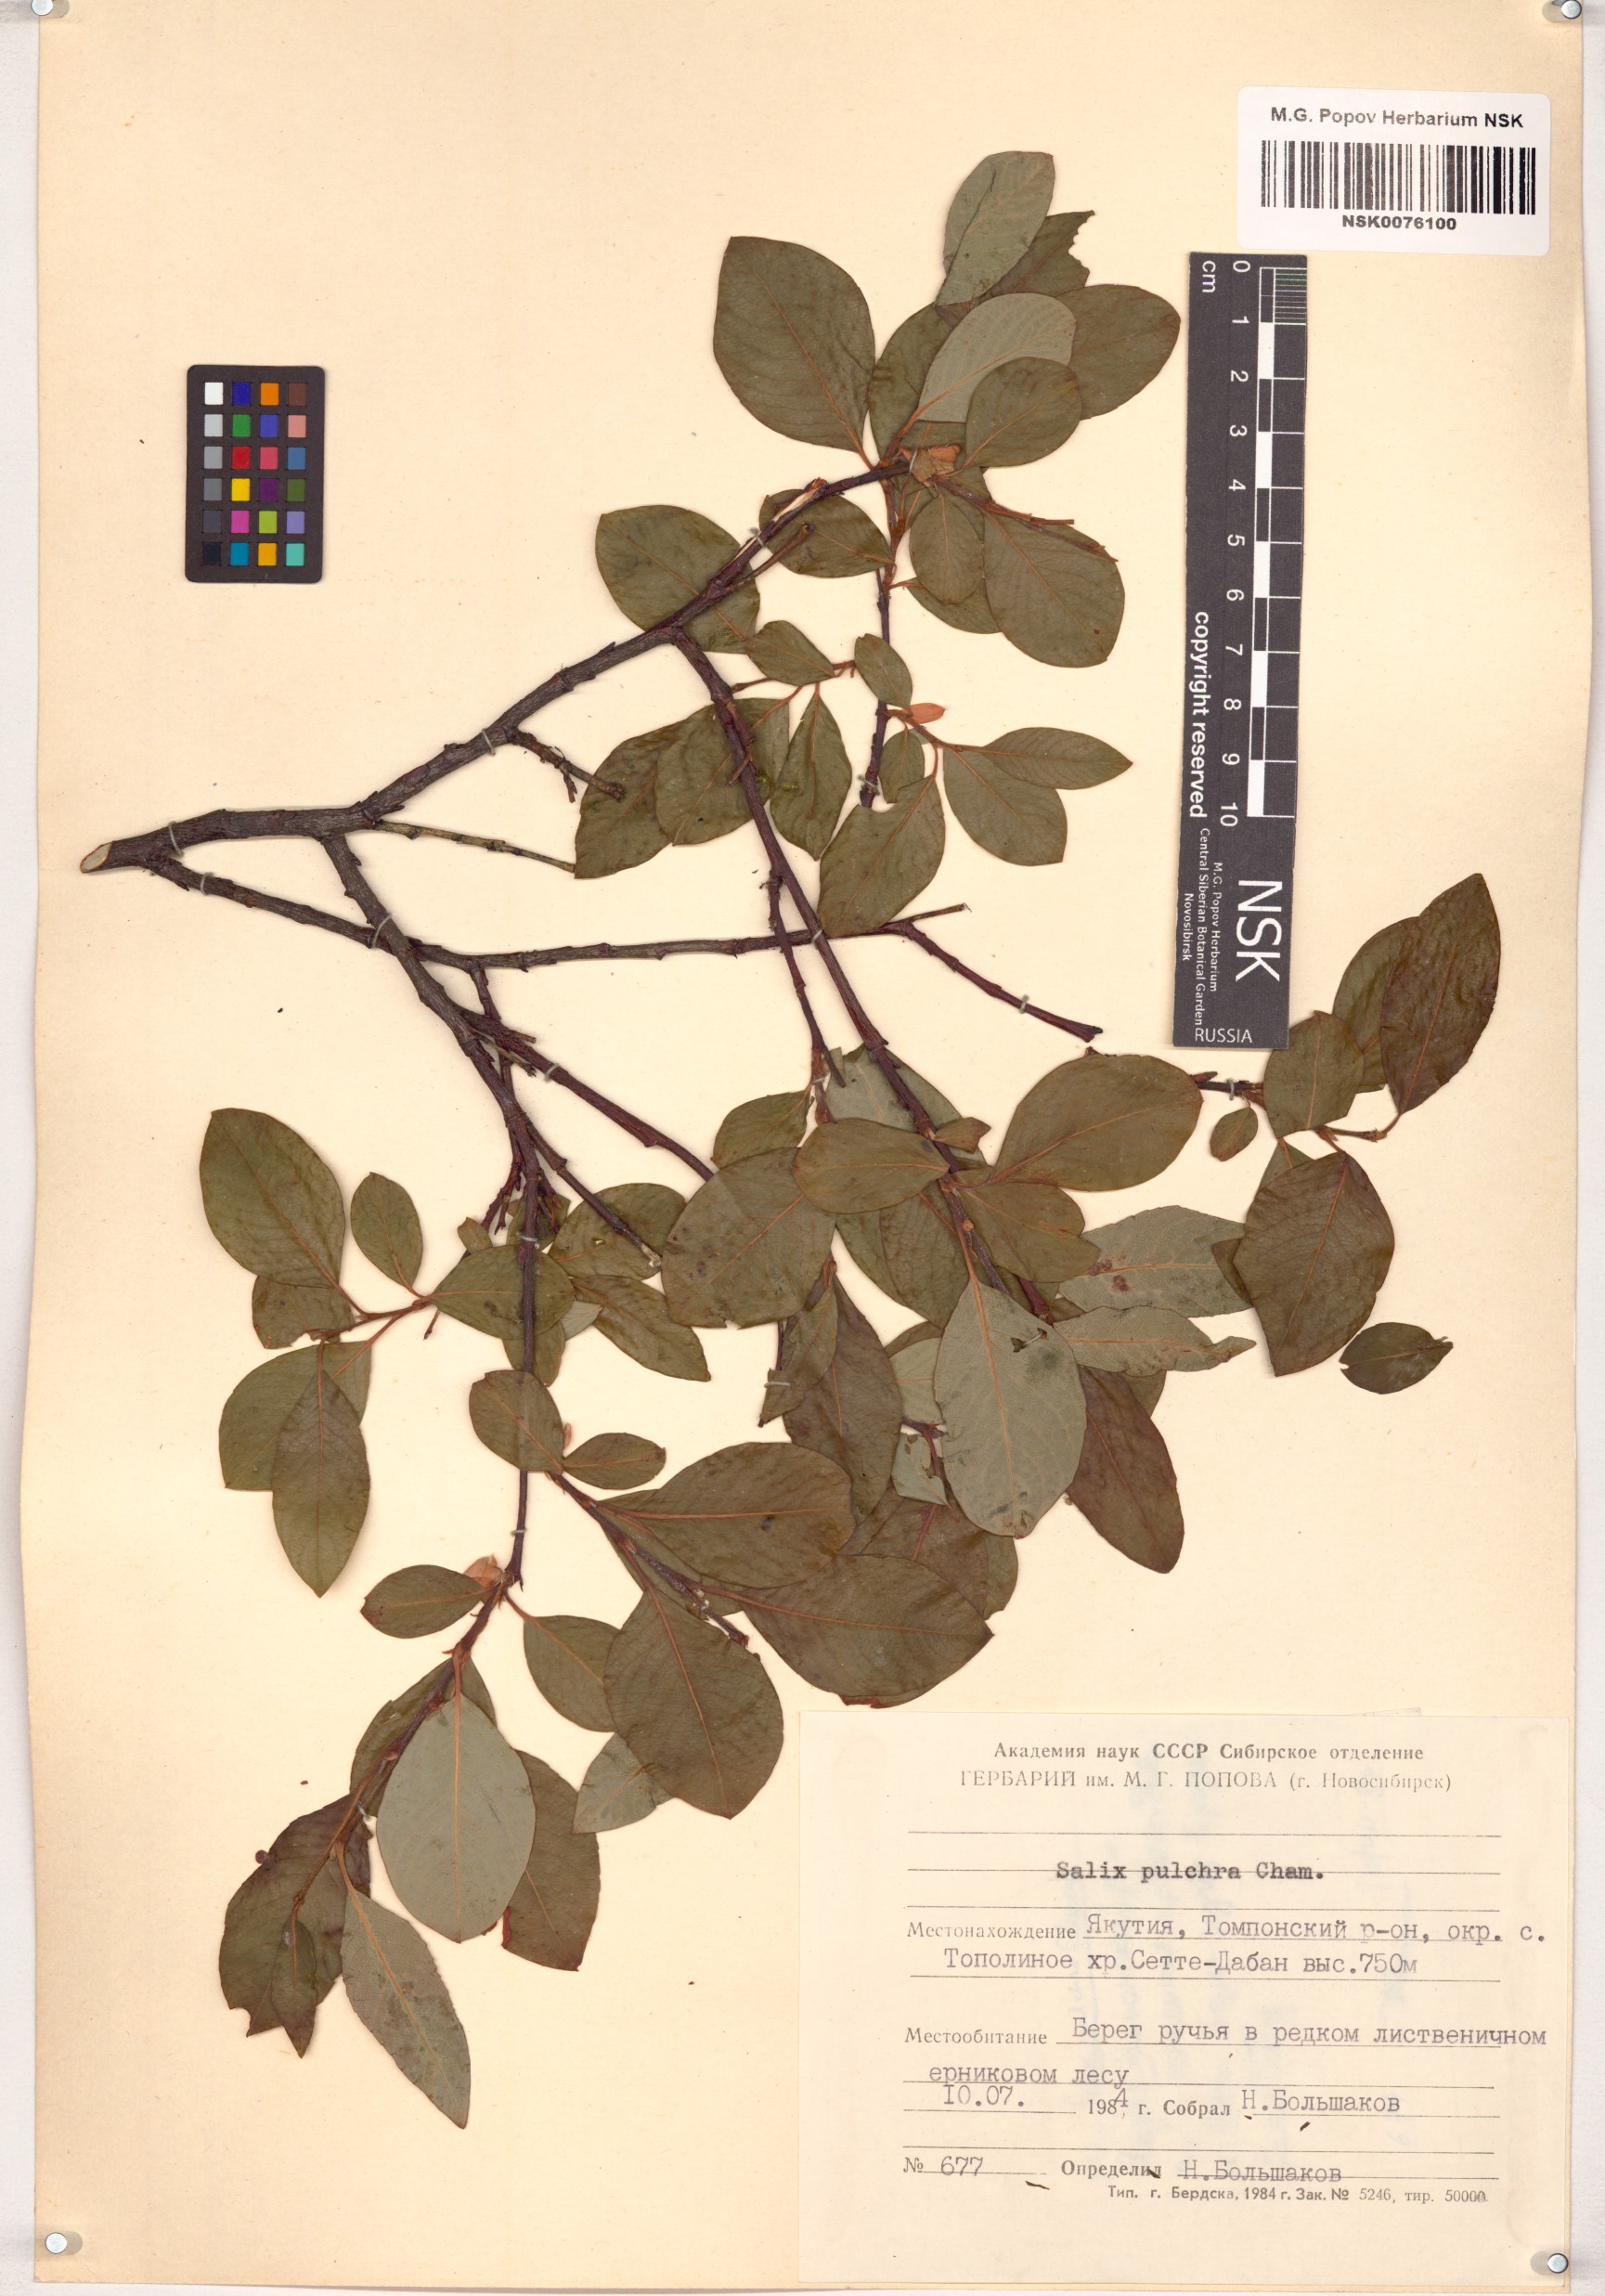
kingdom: Plantae
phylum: Tracheophyta
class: Magnoliopsida
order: Malpighiales
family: Salicaceae
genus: Salix
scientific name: Salix pulchra
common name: Diamond-leaved willow
